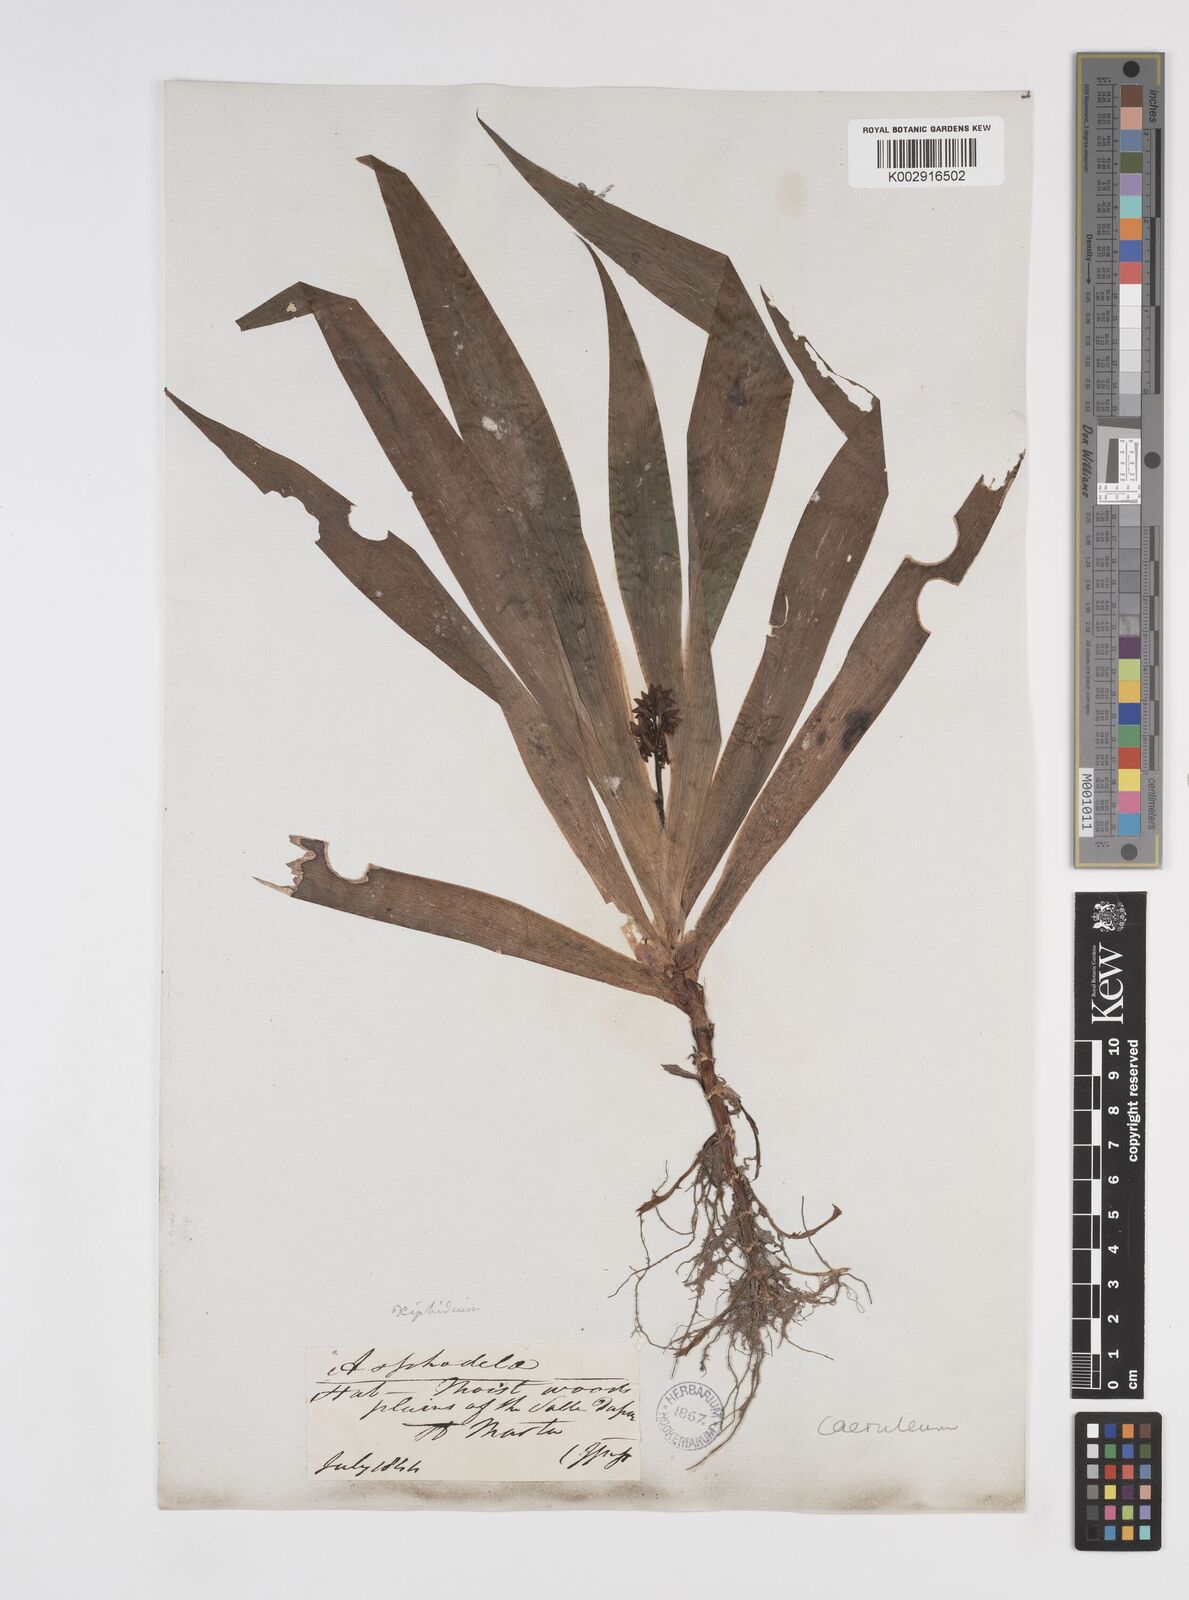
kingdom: Plantae
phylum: Tracheophyta
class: Liliopsida
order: Commelinales
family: Haemodoraceae
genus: Xiphidium
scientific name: Xiphidium caeruleum
